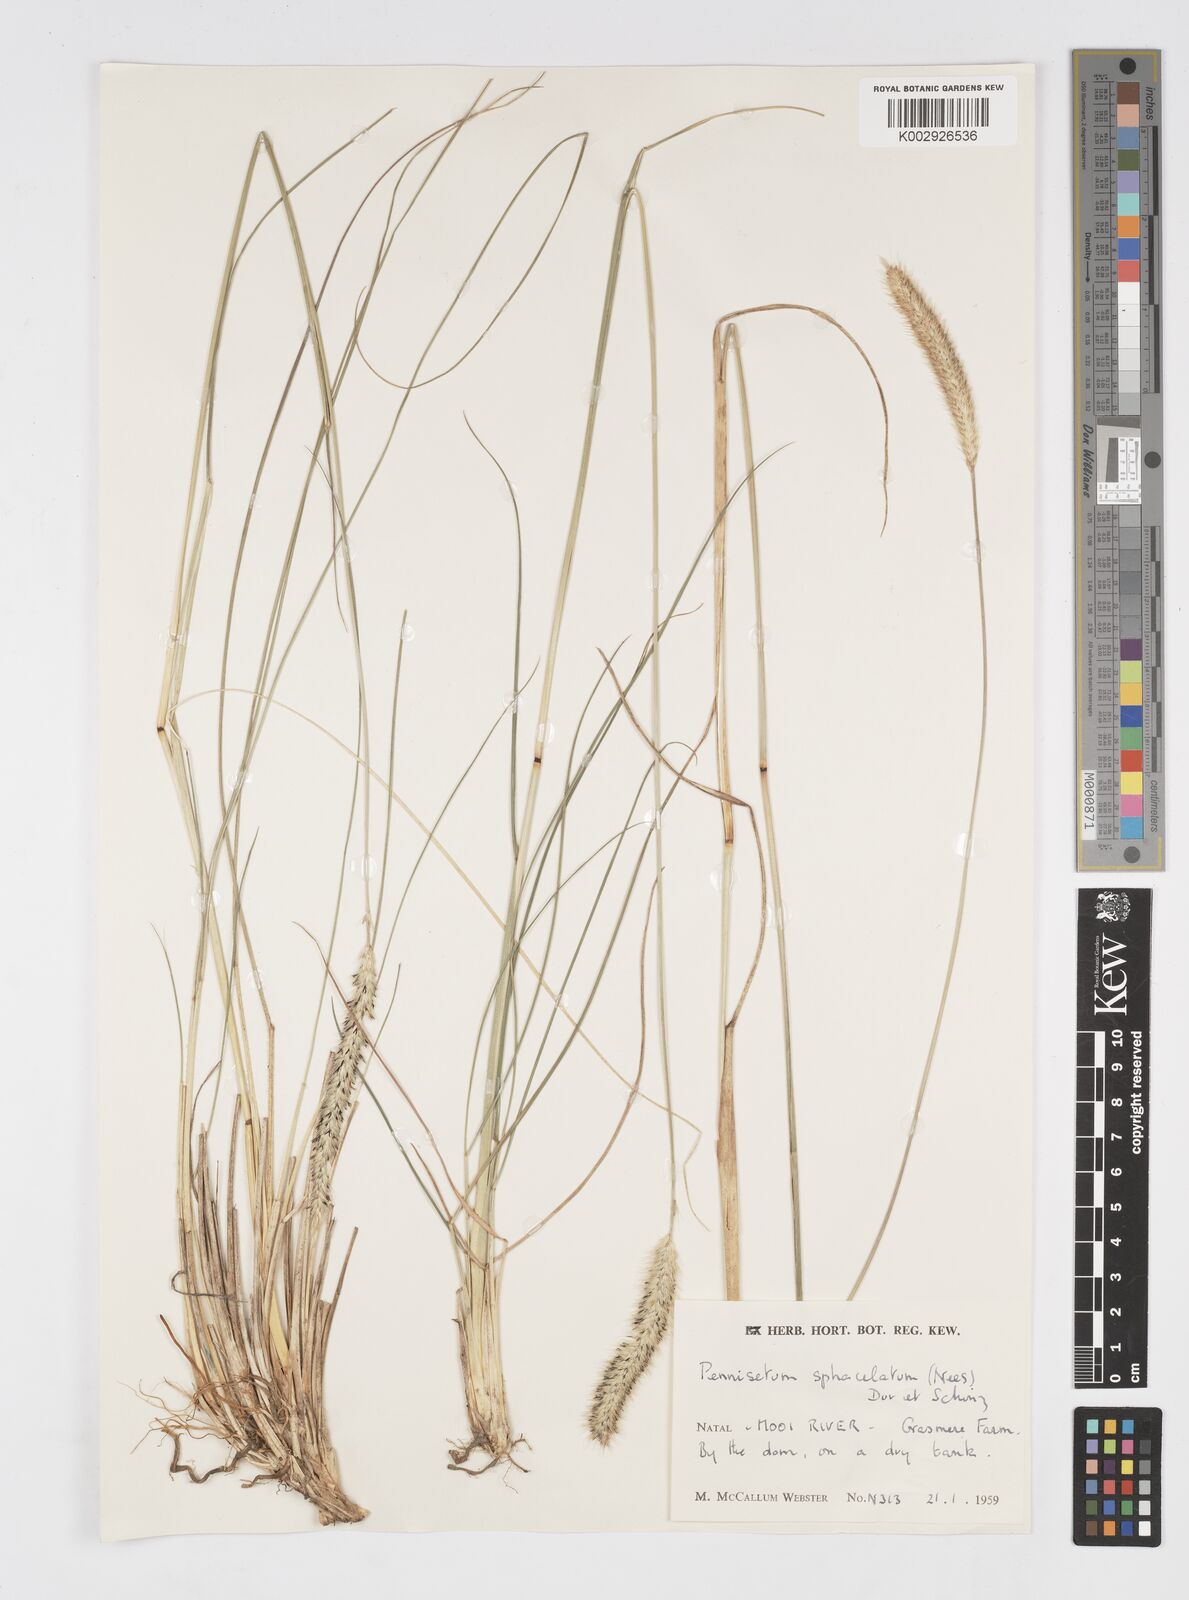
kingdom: Plantae
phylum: Tracheophyta
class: Liliopsida
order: Poales
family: Poaceae
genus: Cenchrus
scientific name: Cenchrus sphacelatus
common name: Bulgras
